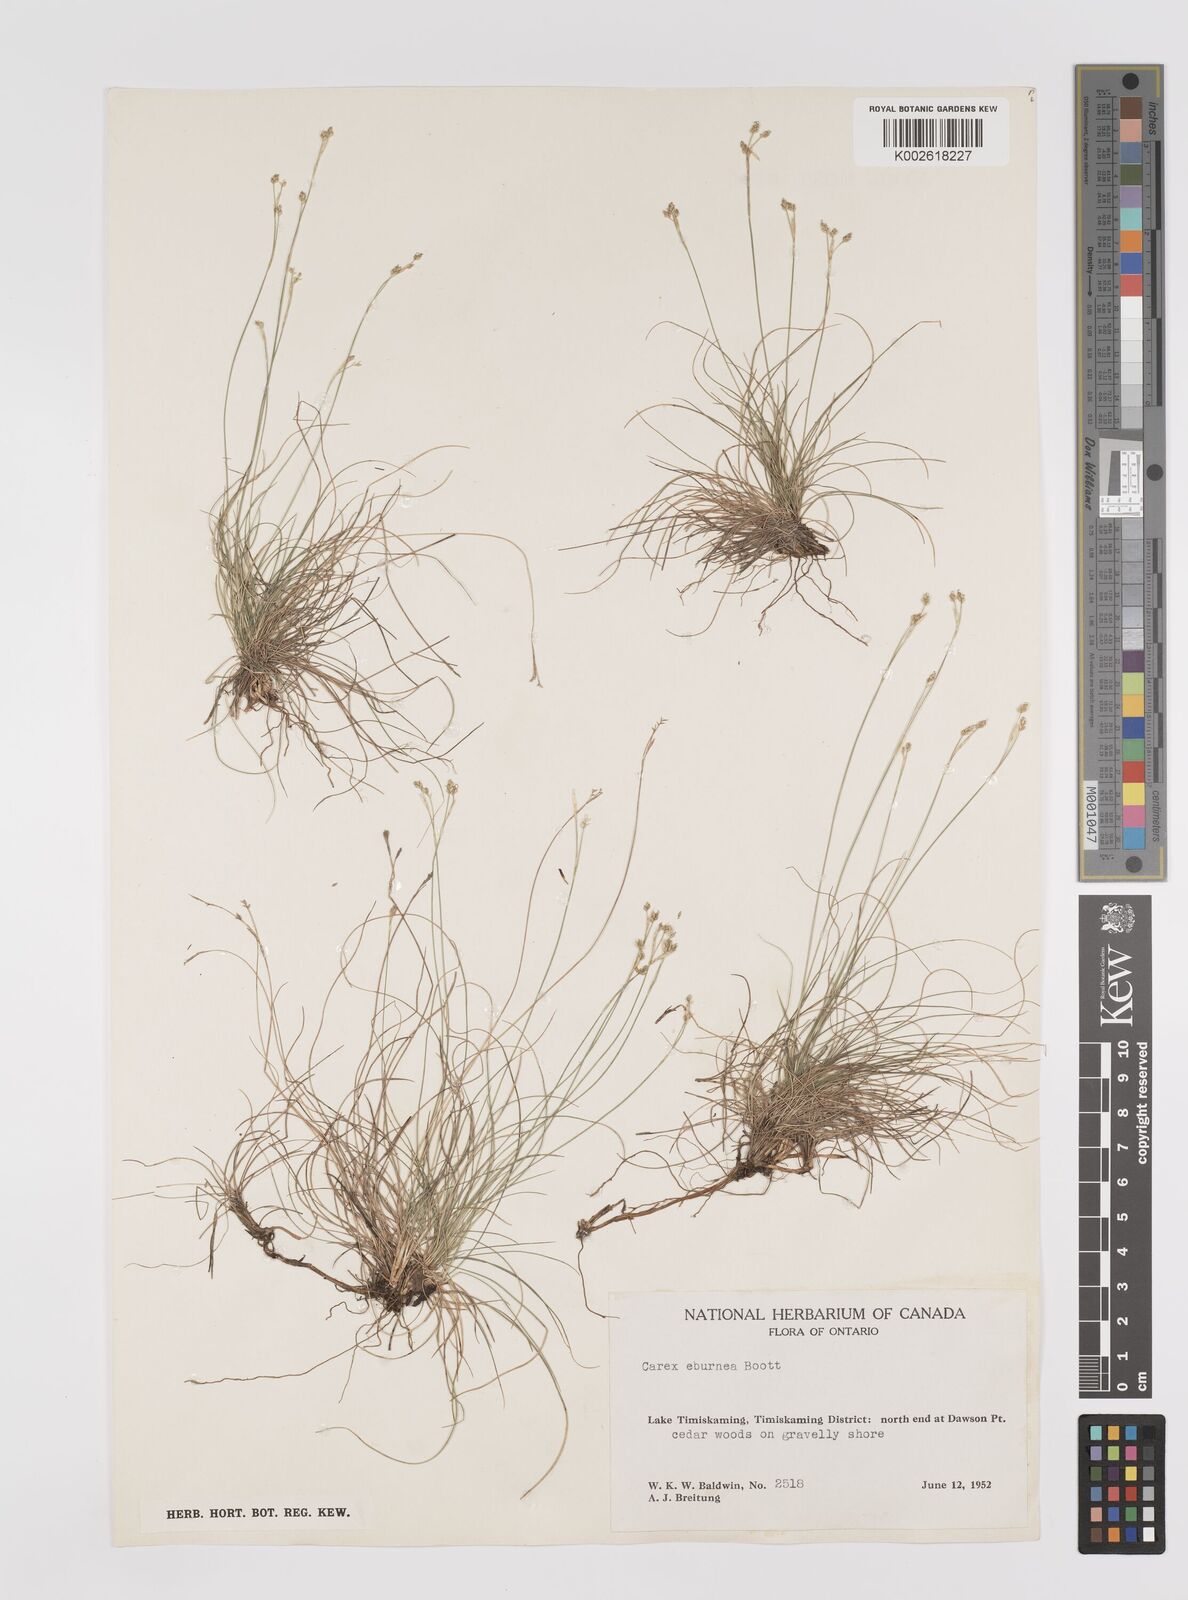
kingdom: Plantae
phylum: Tracheophyta
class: Liliopsida
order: Poales
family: Cyperaceae
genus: Carex
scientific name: Carex eburnea
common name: Bristle-leaved sedge
